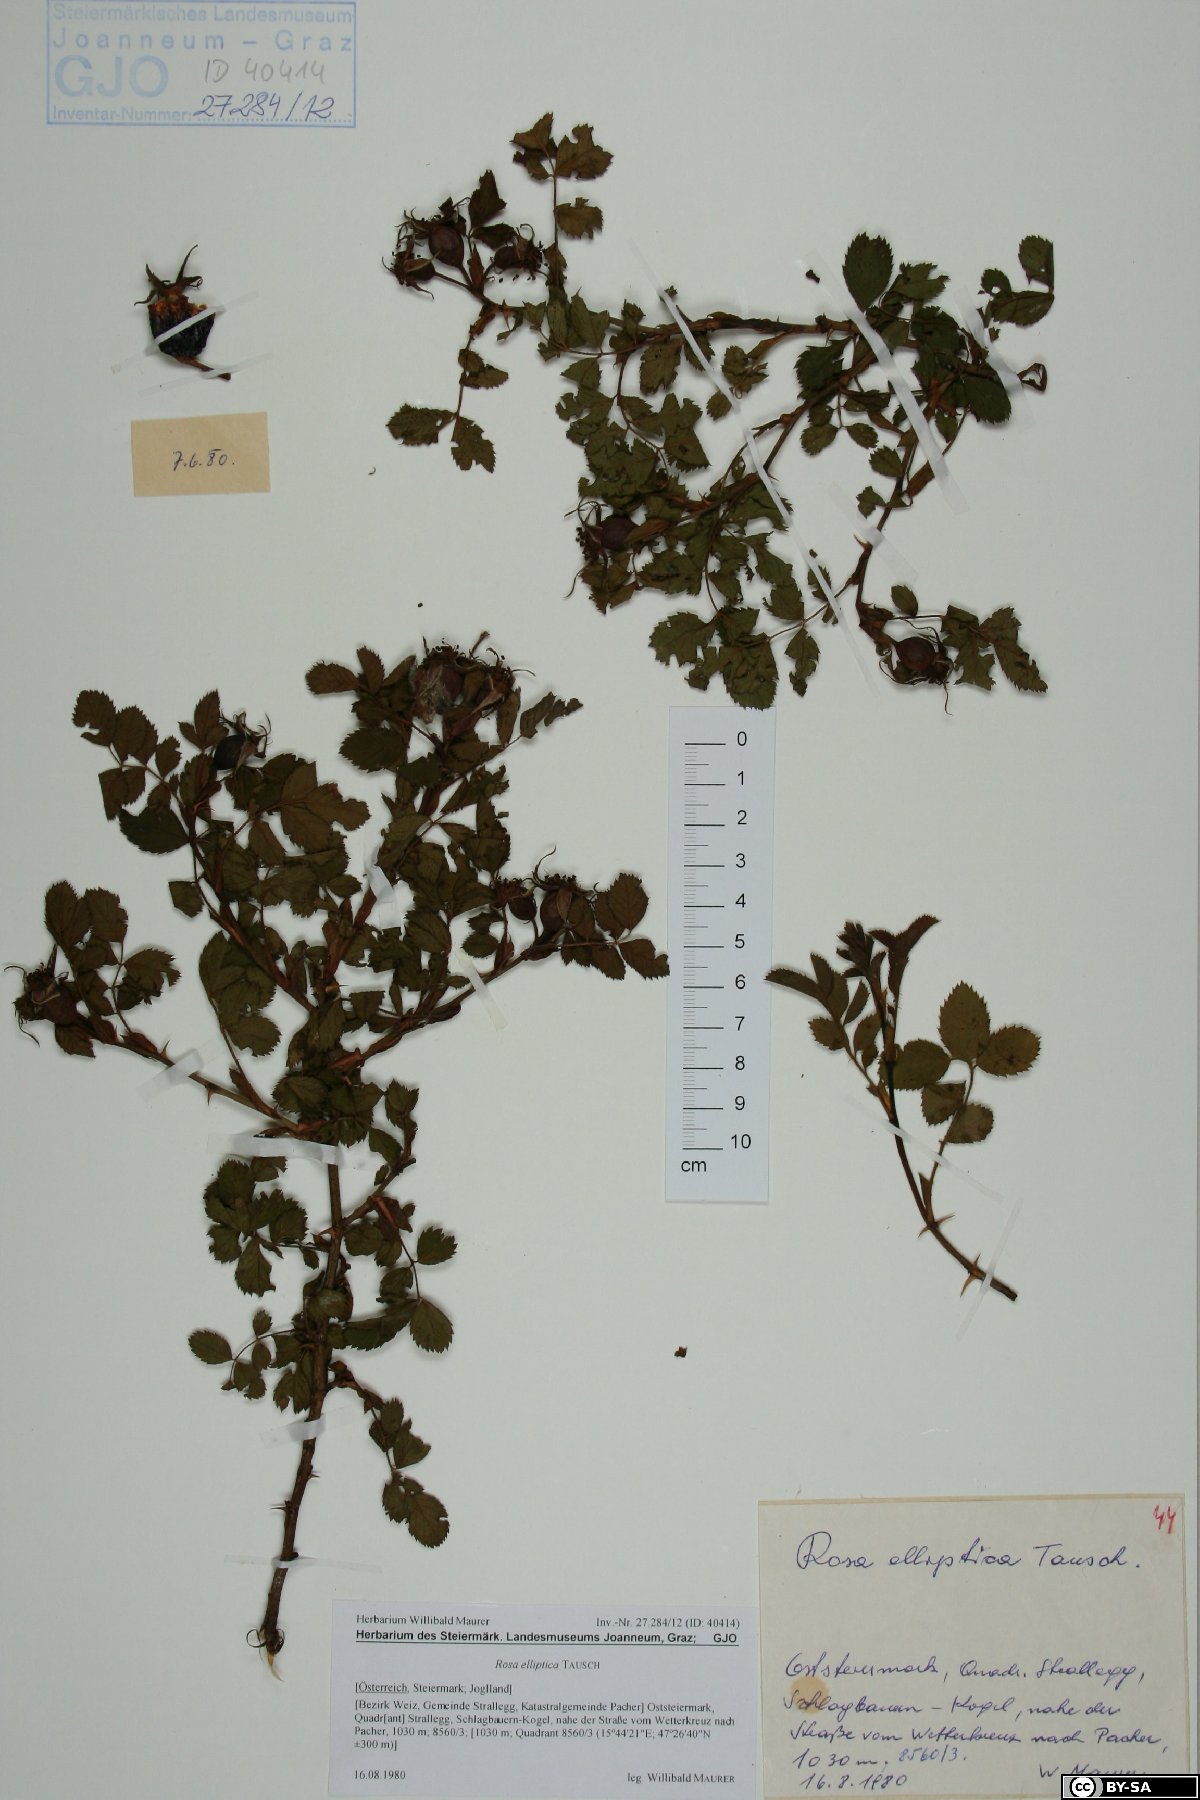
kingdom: Plantae
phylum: Tracheophyta
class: Magnoliopsida
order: Rosales
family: Rosaceae
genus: Rosa
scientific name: Rosa inodora
